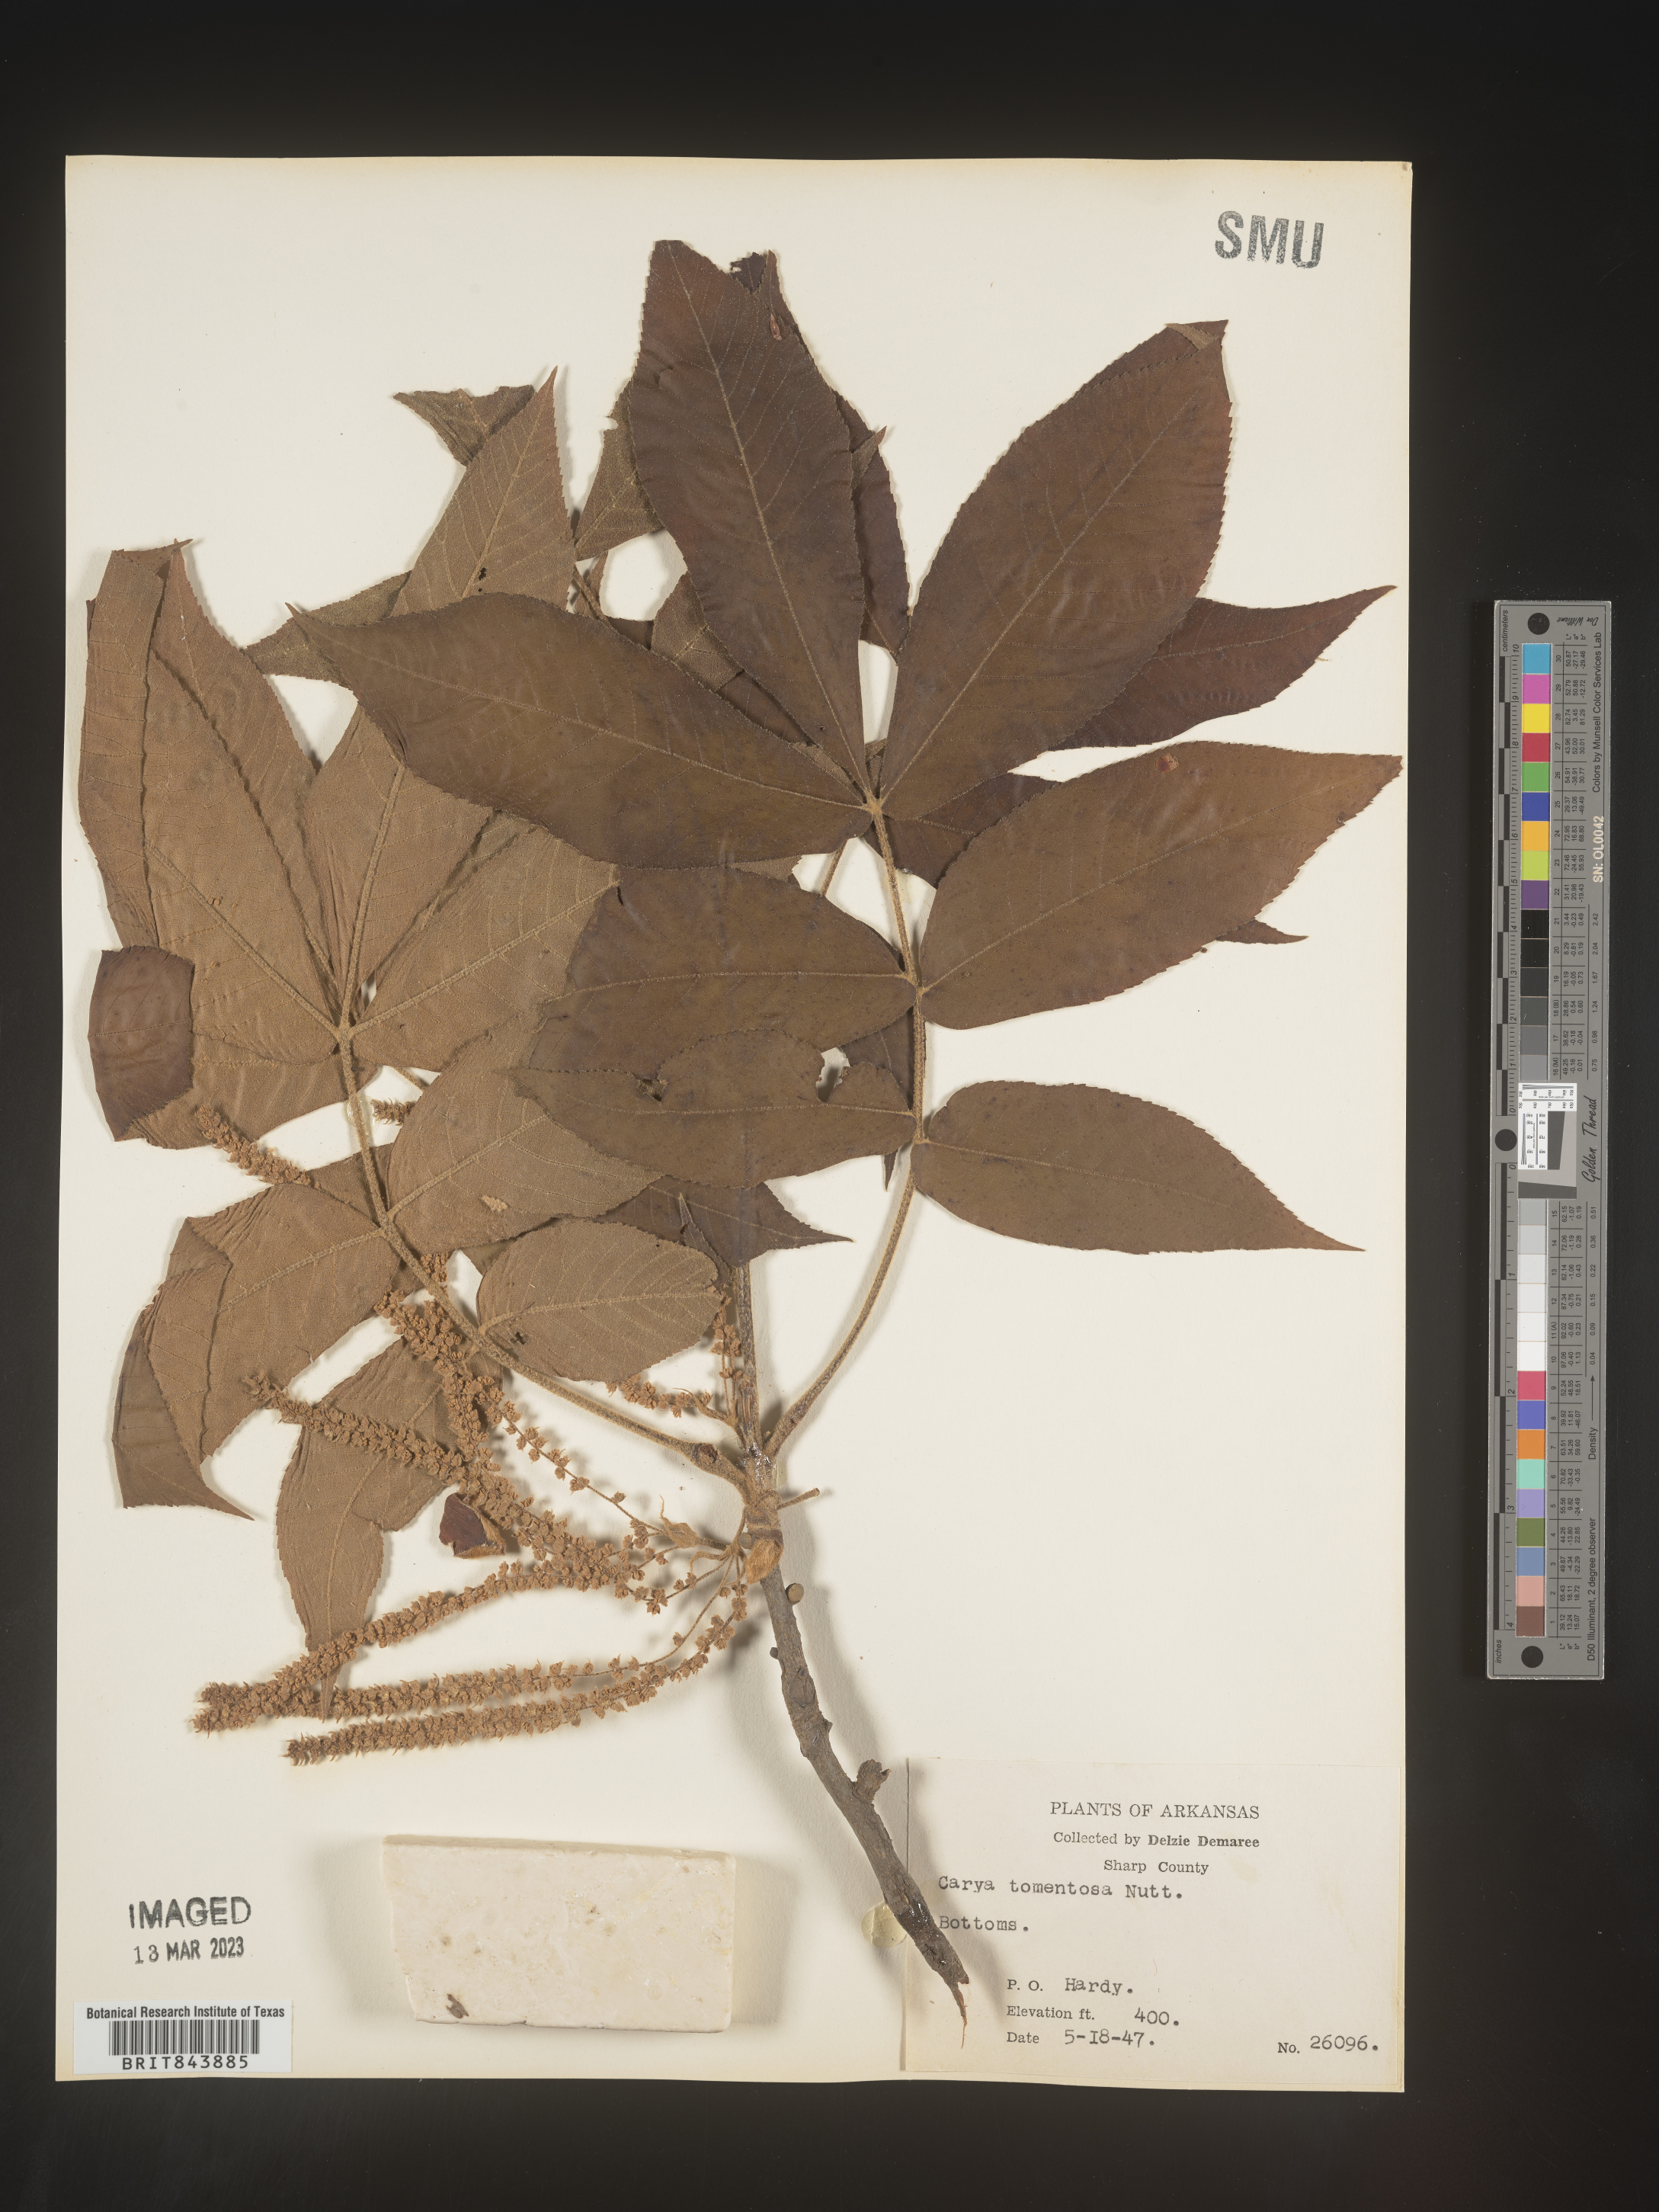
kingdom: Plantae
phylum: Tracheophyta
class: Magnoliopsida
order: Fagales
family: Juglandaceae
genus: Carya
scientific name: Carya alba
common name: Mockernut hickory
